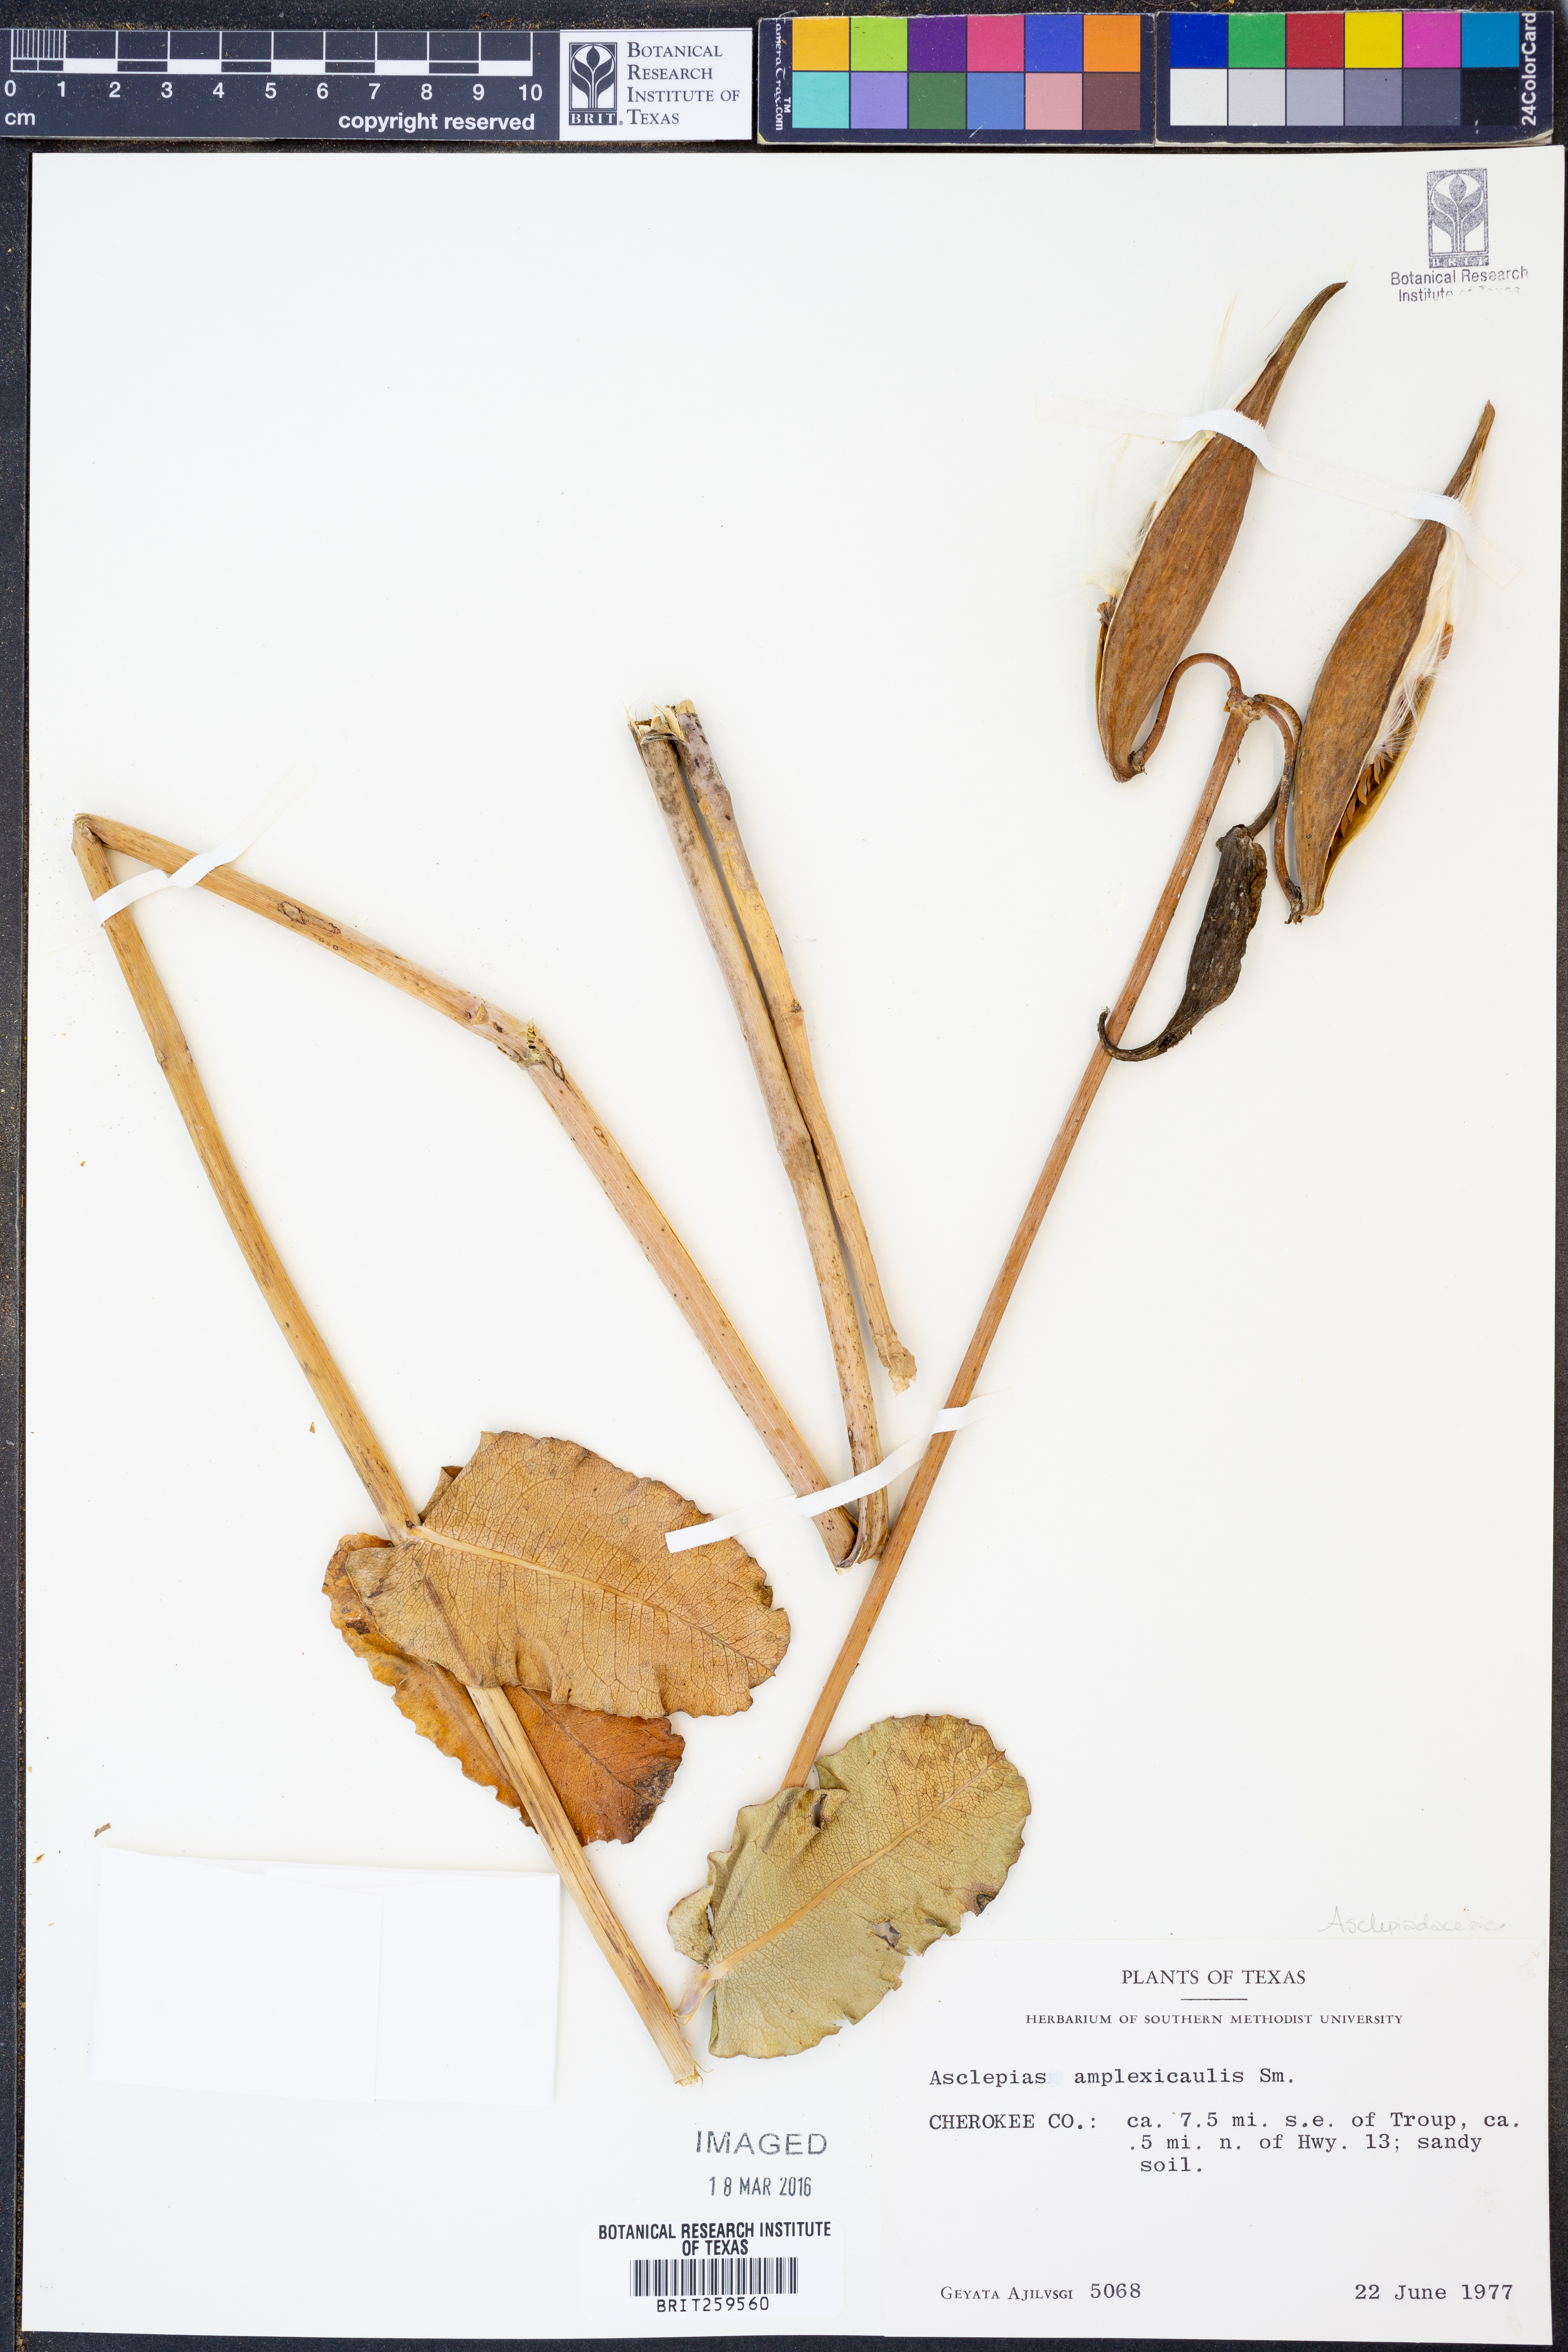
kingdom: Plantae
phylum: Tracheophyta
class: Magnoliopsida
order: Gentianales
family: Apocynaceae
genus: Asclepias
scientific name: Asclepias amplexicaulis
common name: Blunt-leaf milkweed
